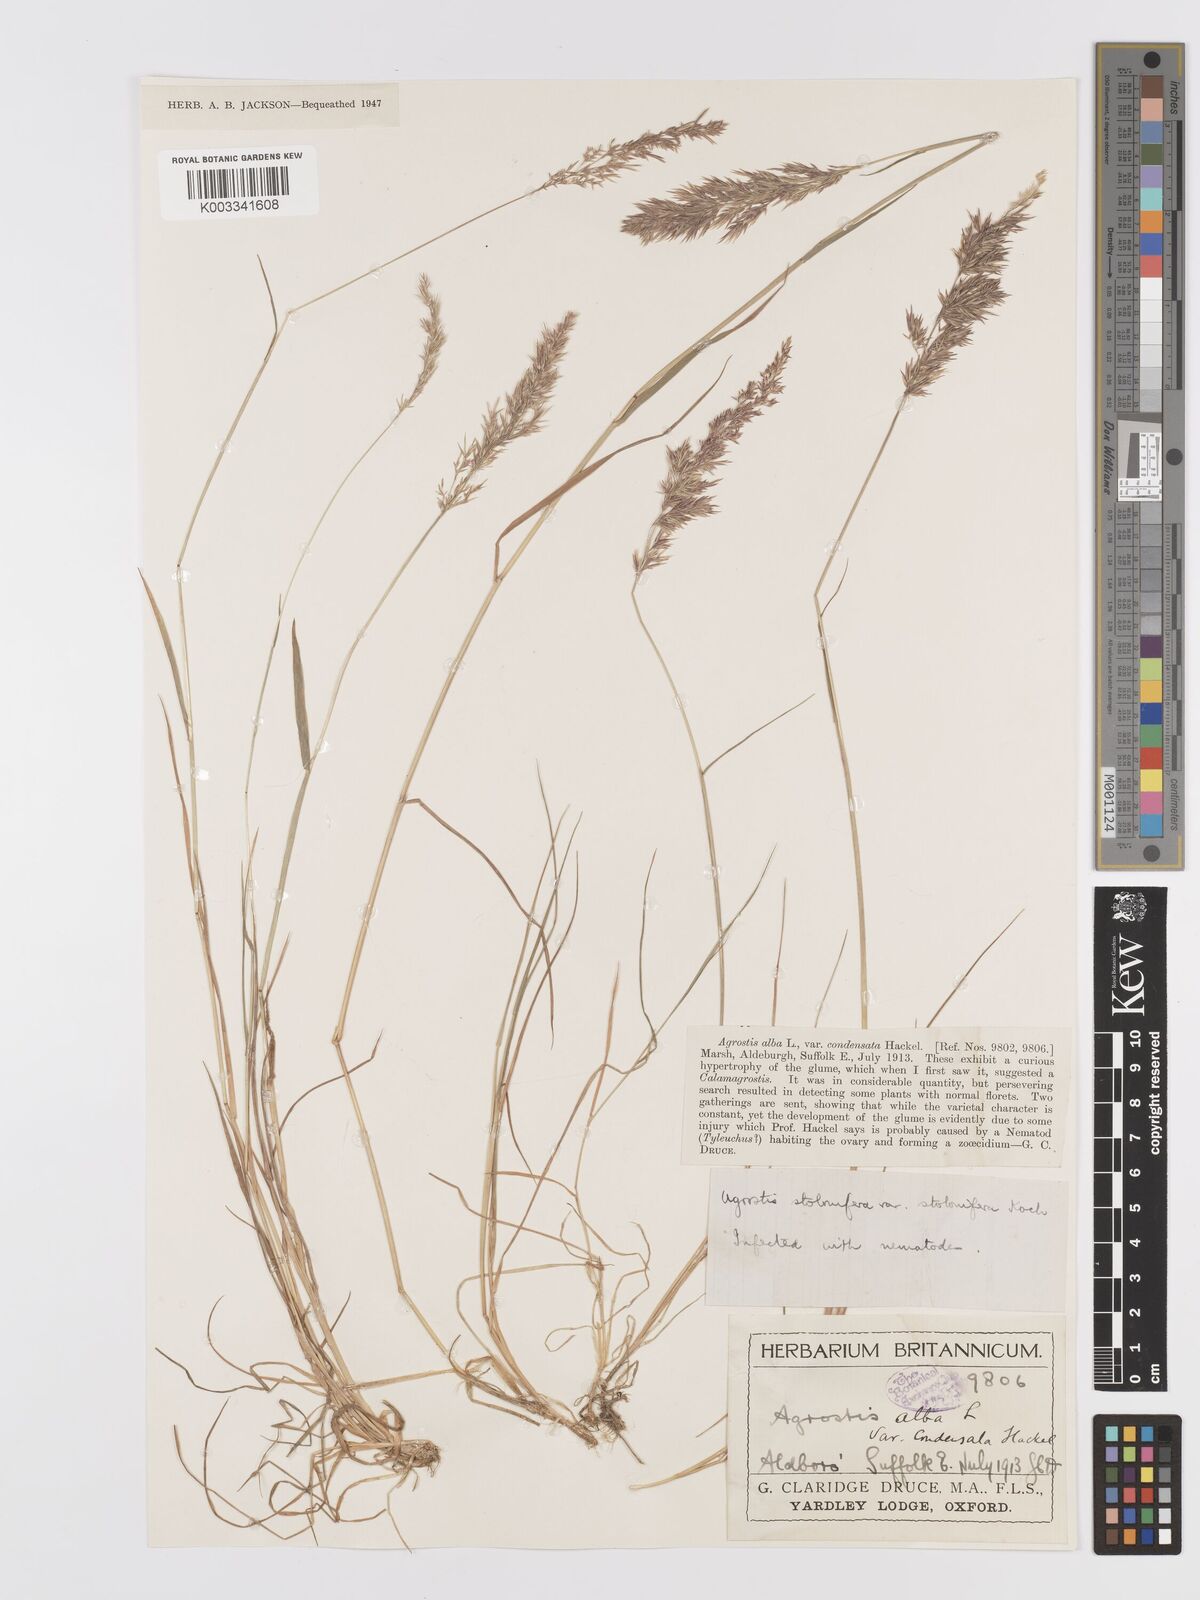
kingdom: Plantae
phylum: Tracheophyta
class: Liliopsida
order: Poales
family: Poaceae
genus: Agrostis
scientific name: Agrostis stolonifera
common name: Creeping bentgrass
